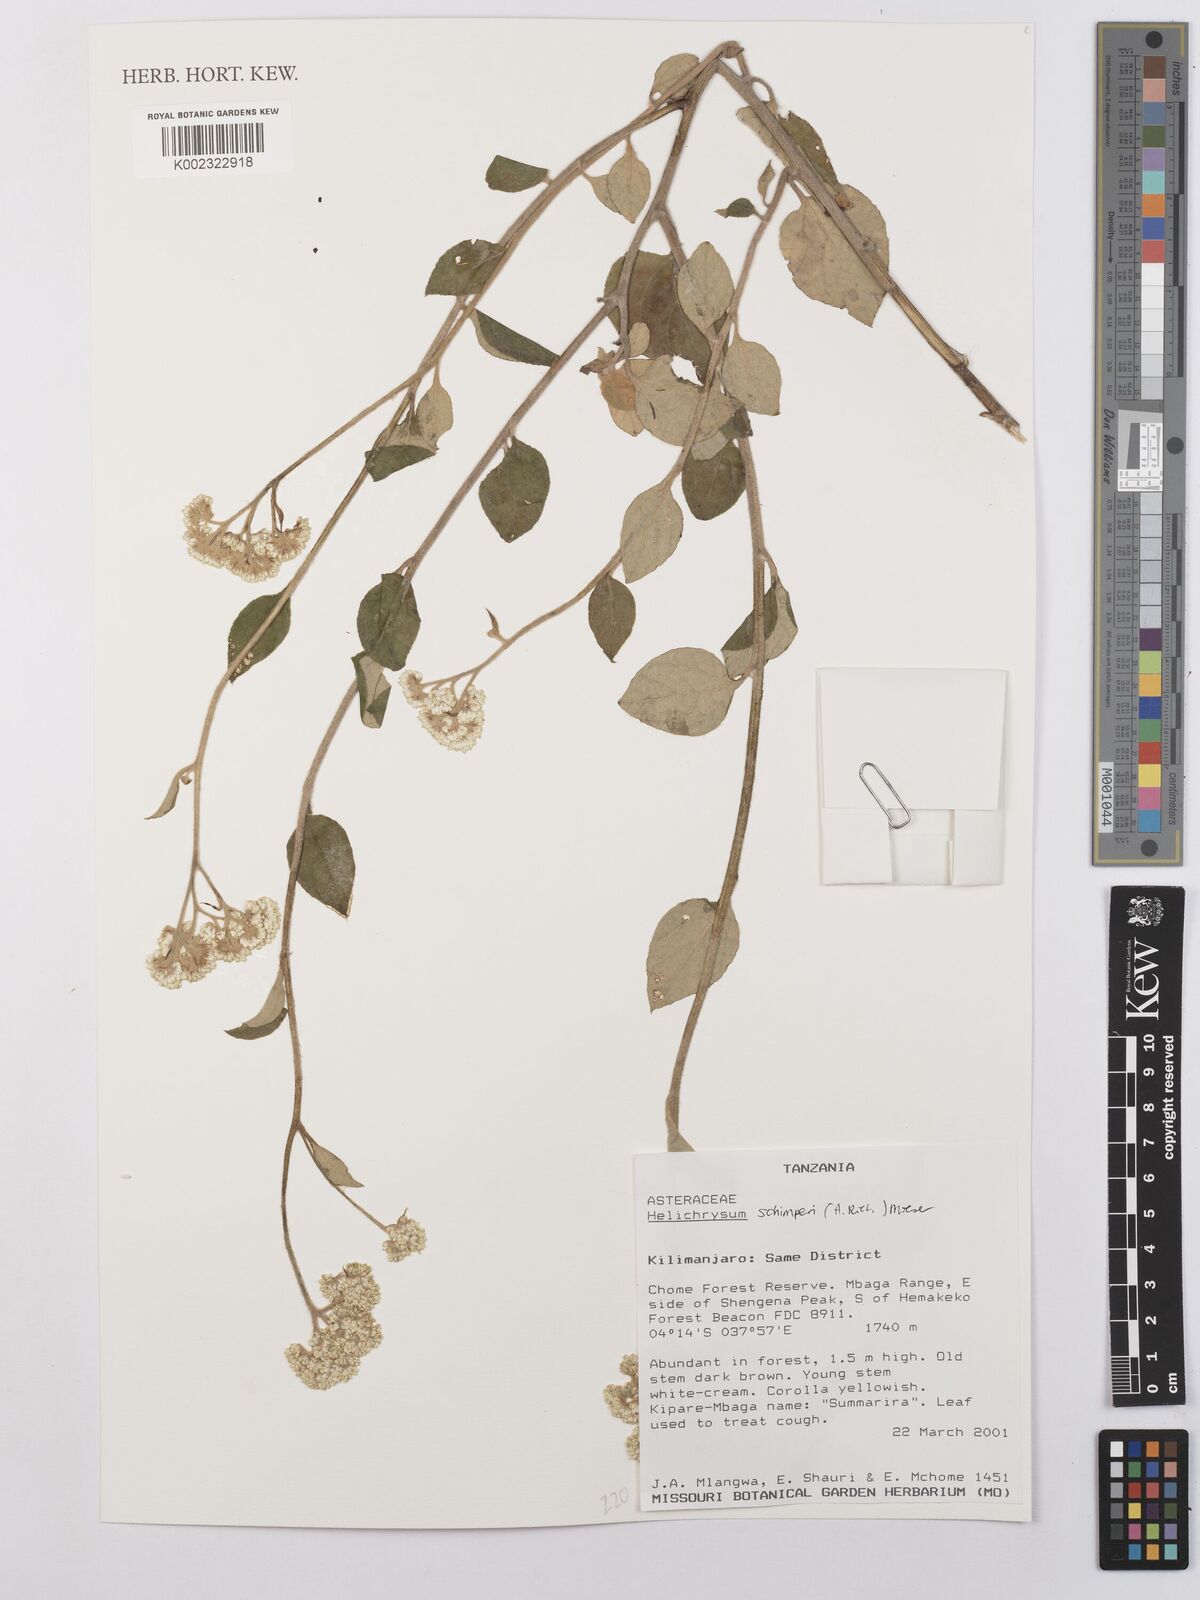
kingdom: Plantae
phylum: Tracheophyta
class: Magnoliopsida
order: Asterales
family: Asteraceae
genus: Helichrysum
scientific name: Helichrysum schimperi
